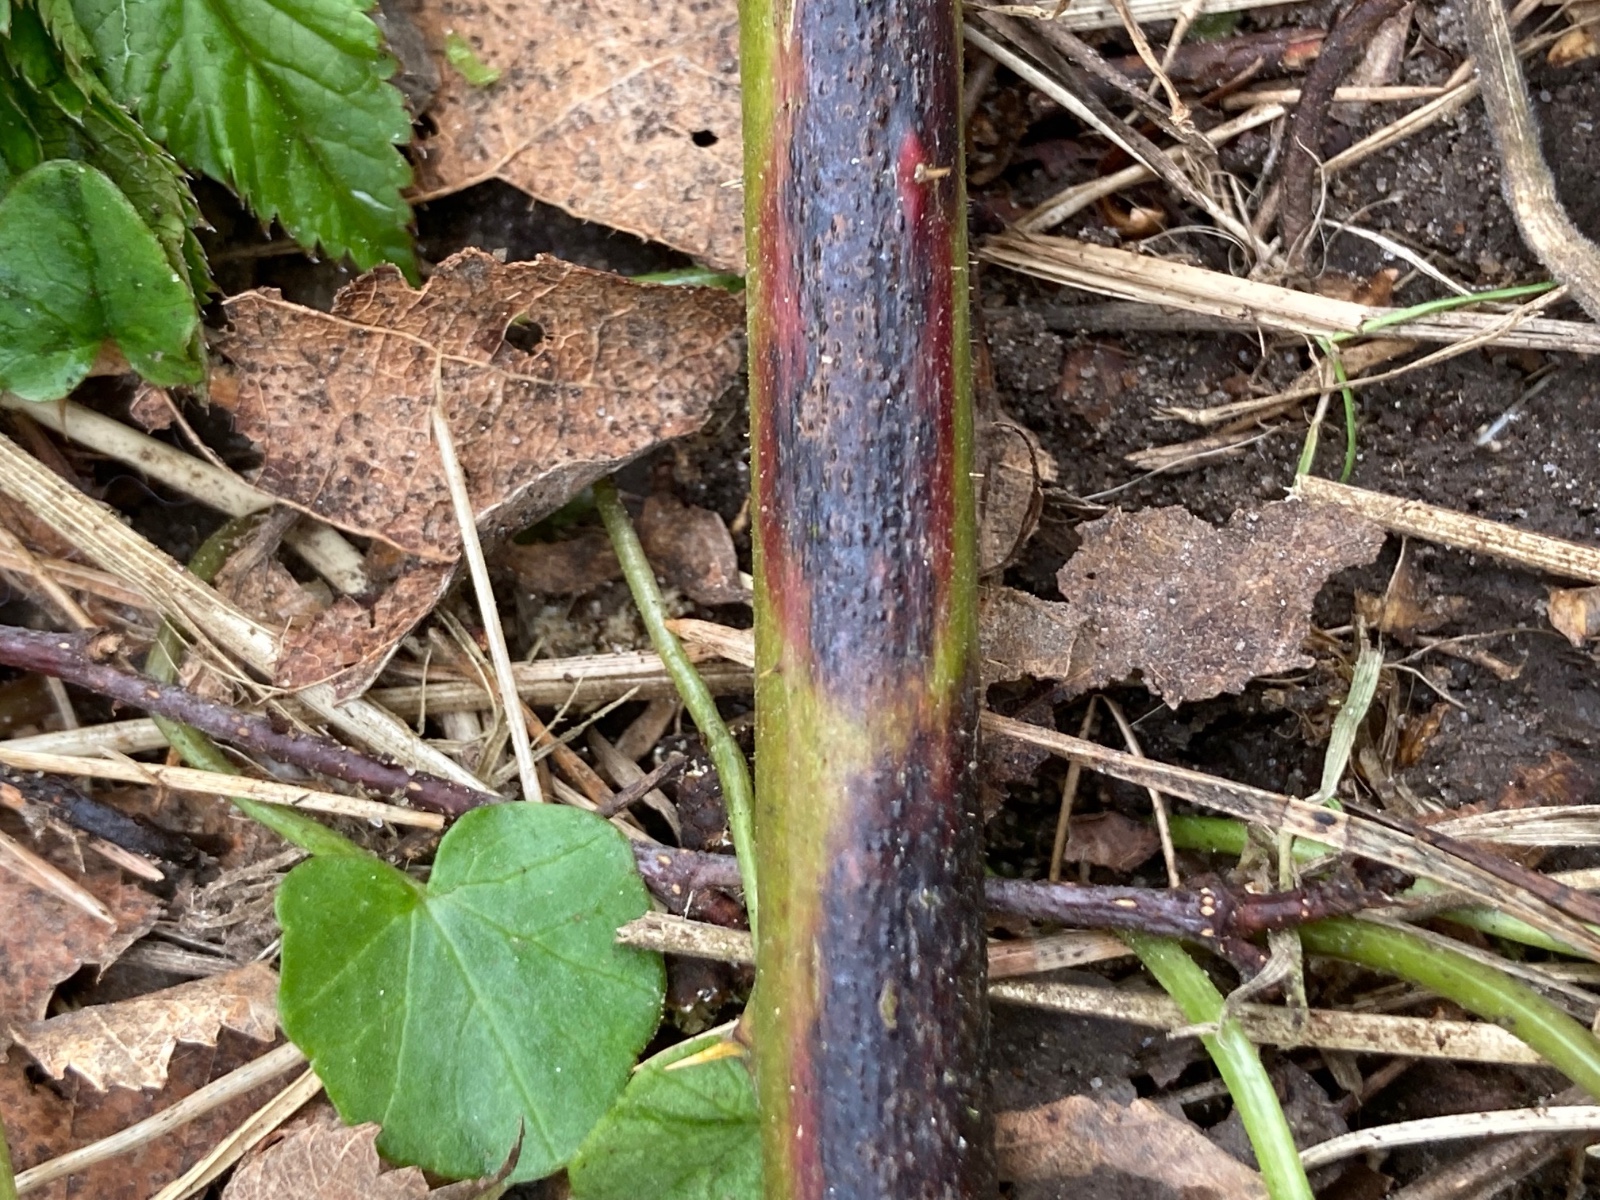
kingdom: Fungi
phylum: Ascomycota
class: Dothideomycetes
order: Capnodiales
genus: Septocyta
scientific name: Septocyta ruborum
